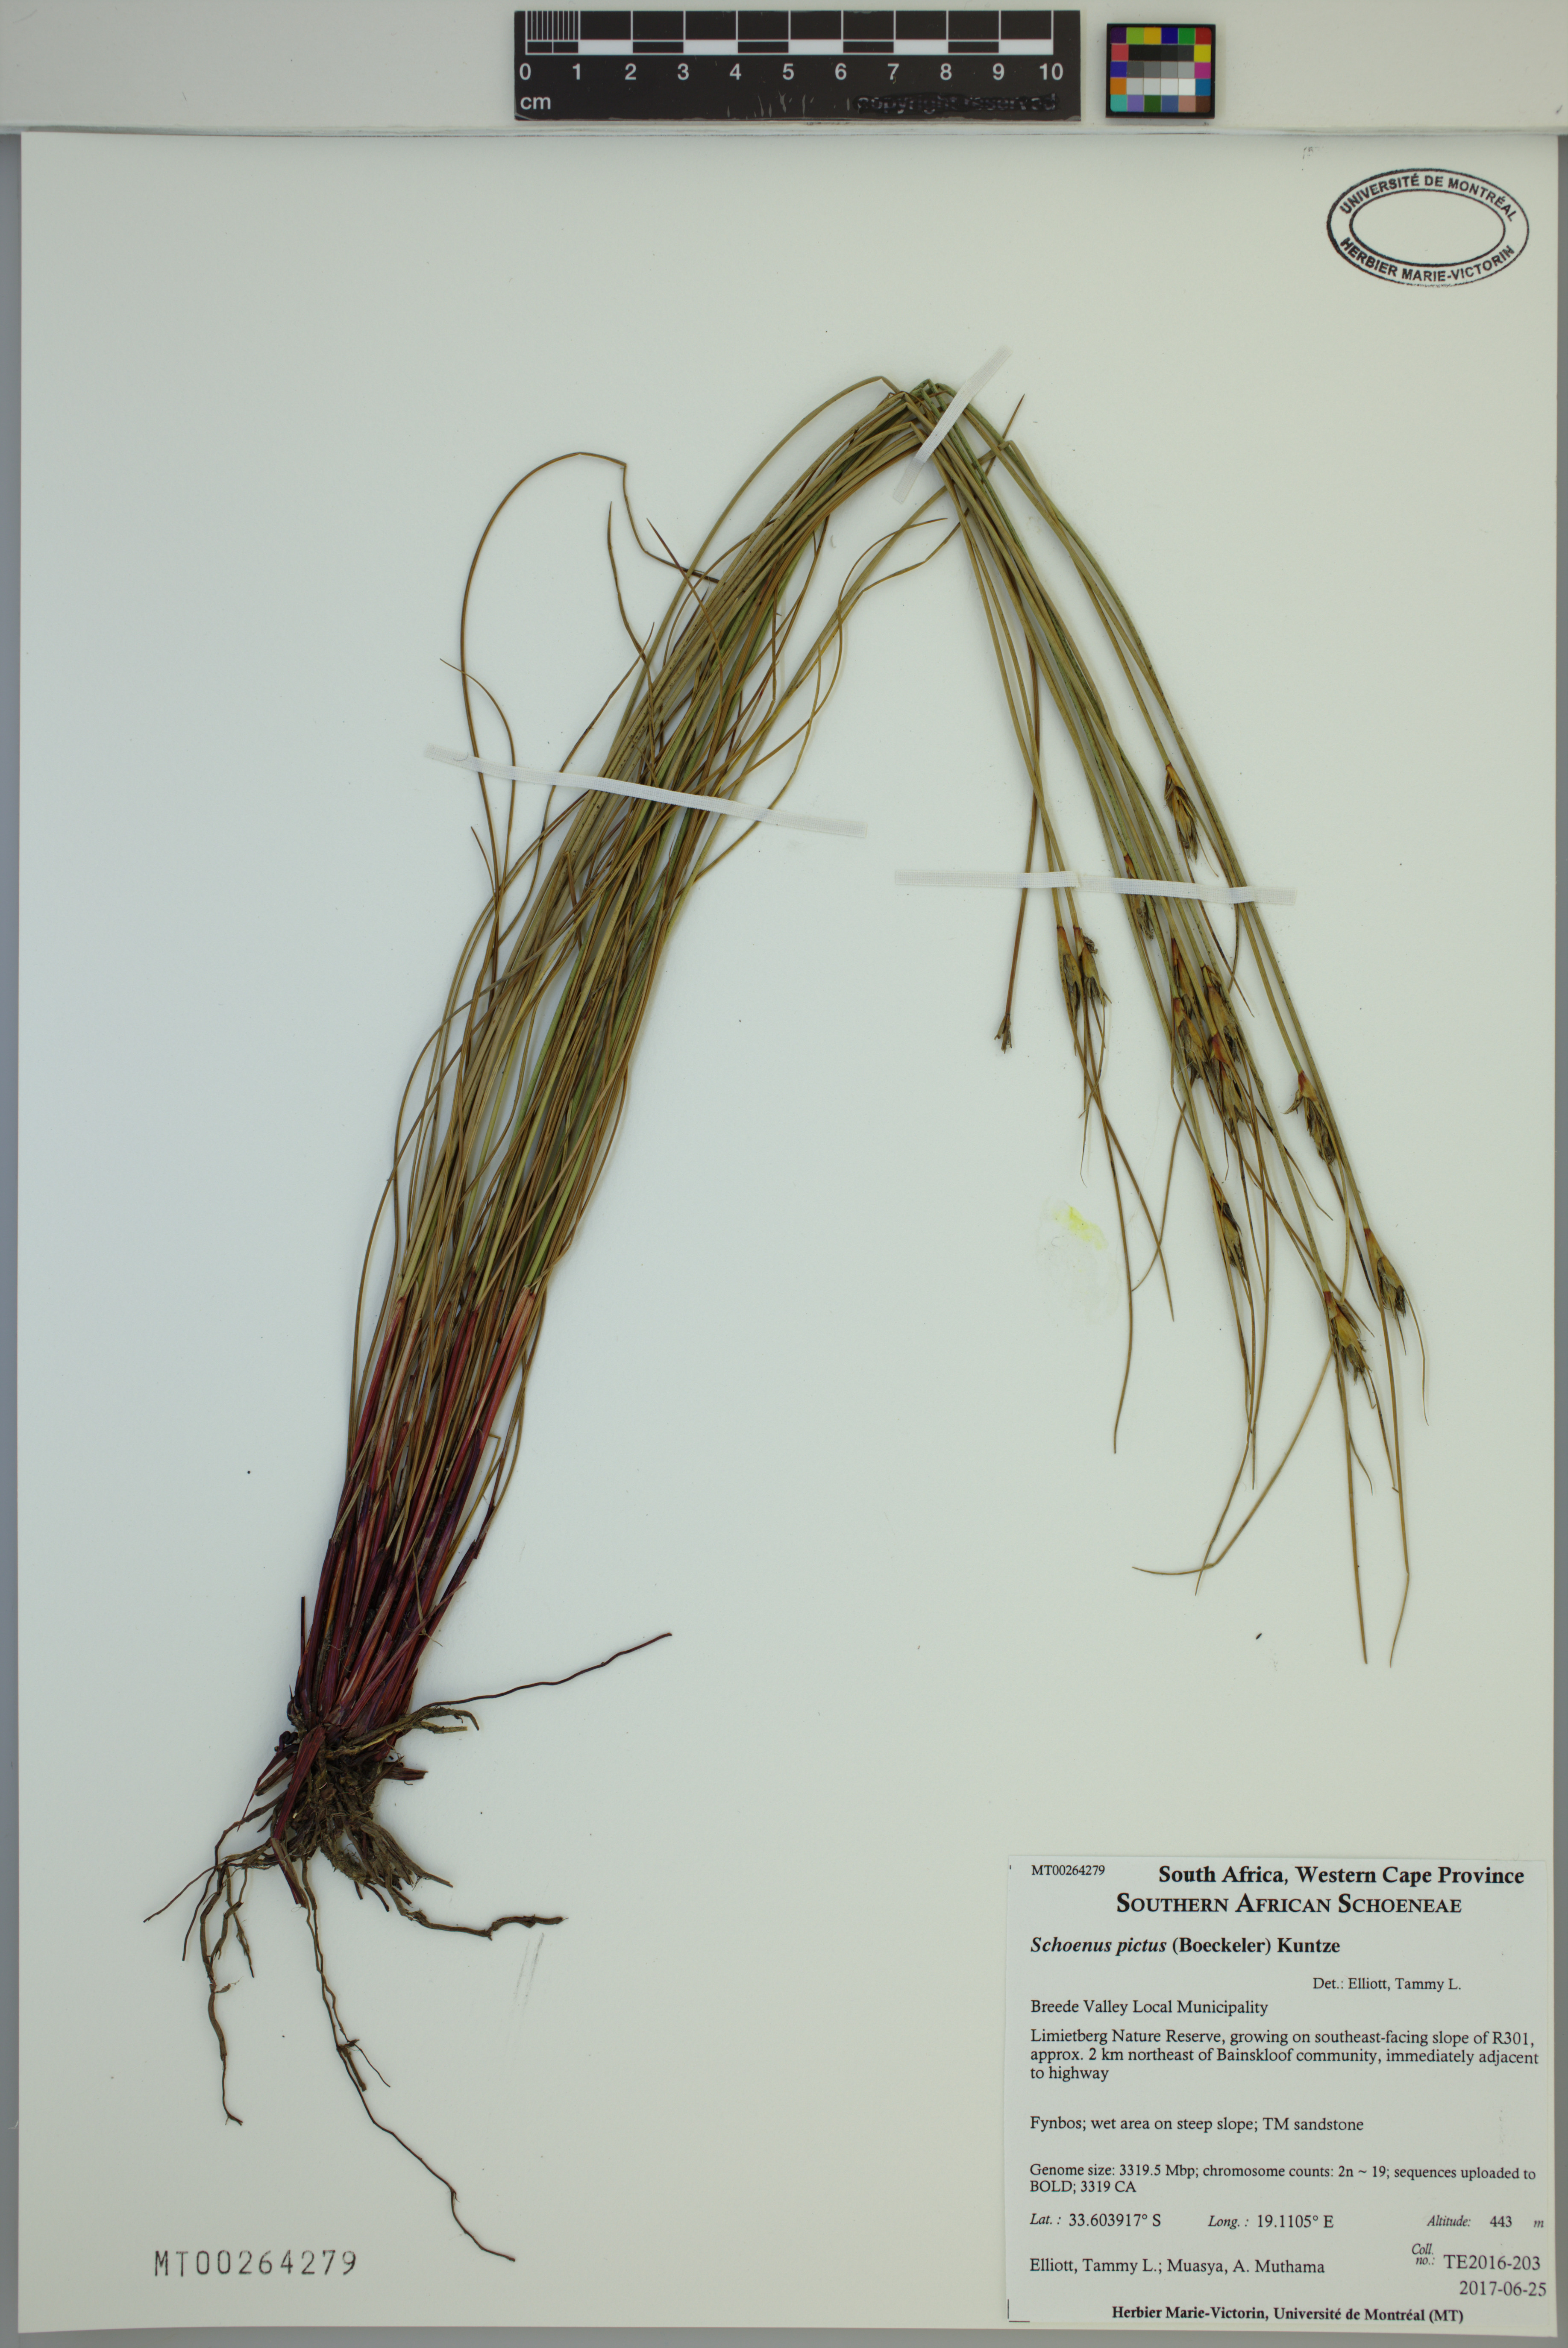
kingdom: Plantae
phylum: Tracheophyta
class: Liliopsida
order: Poales
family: Cyperaceae
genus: Schoenus
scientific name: Schoenus pictus
